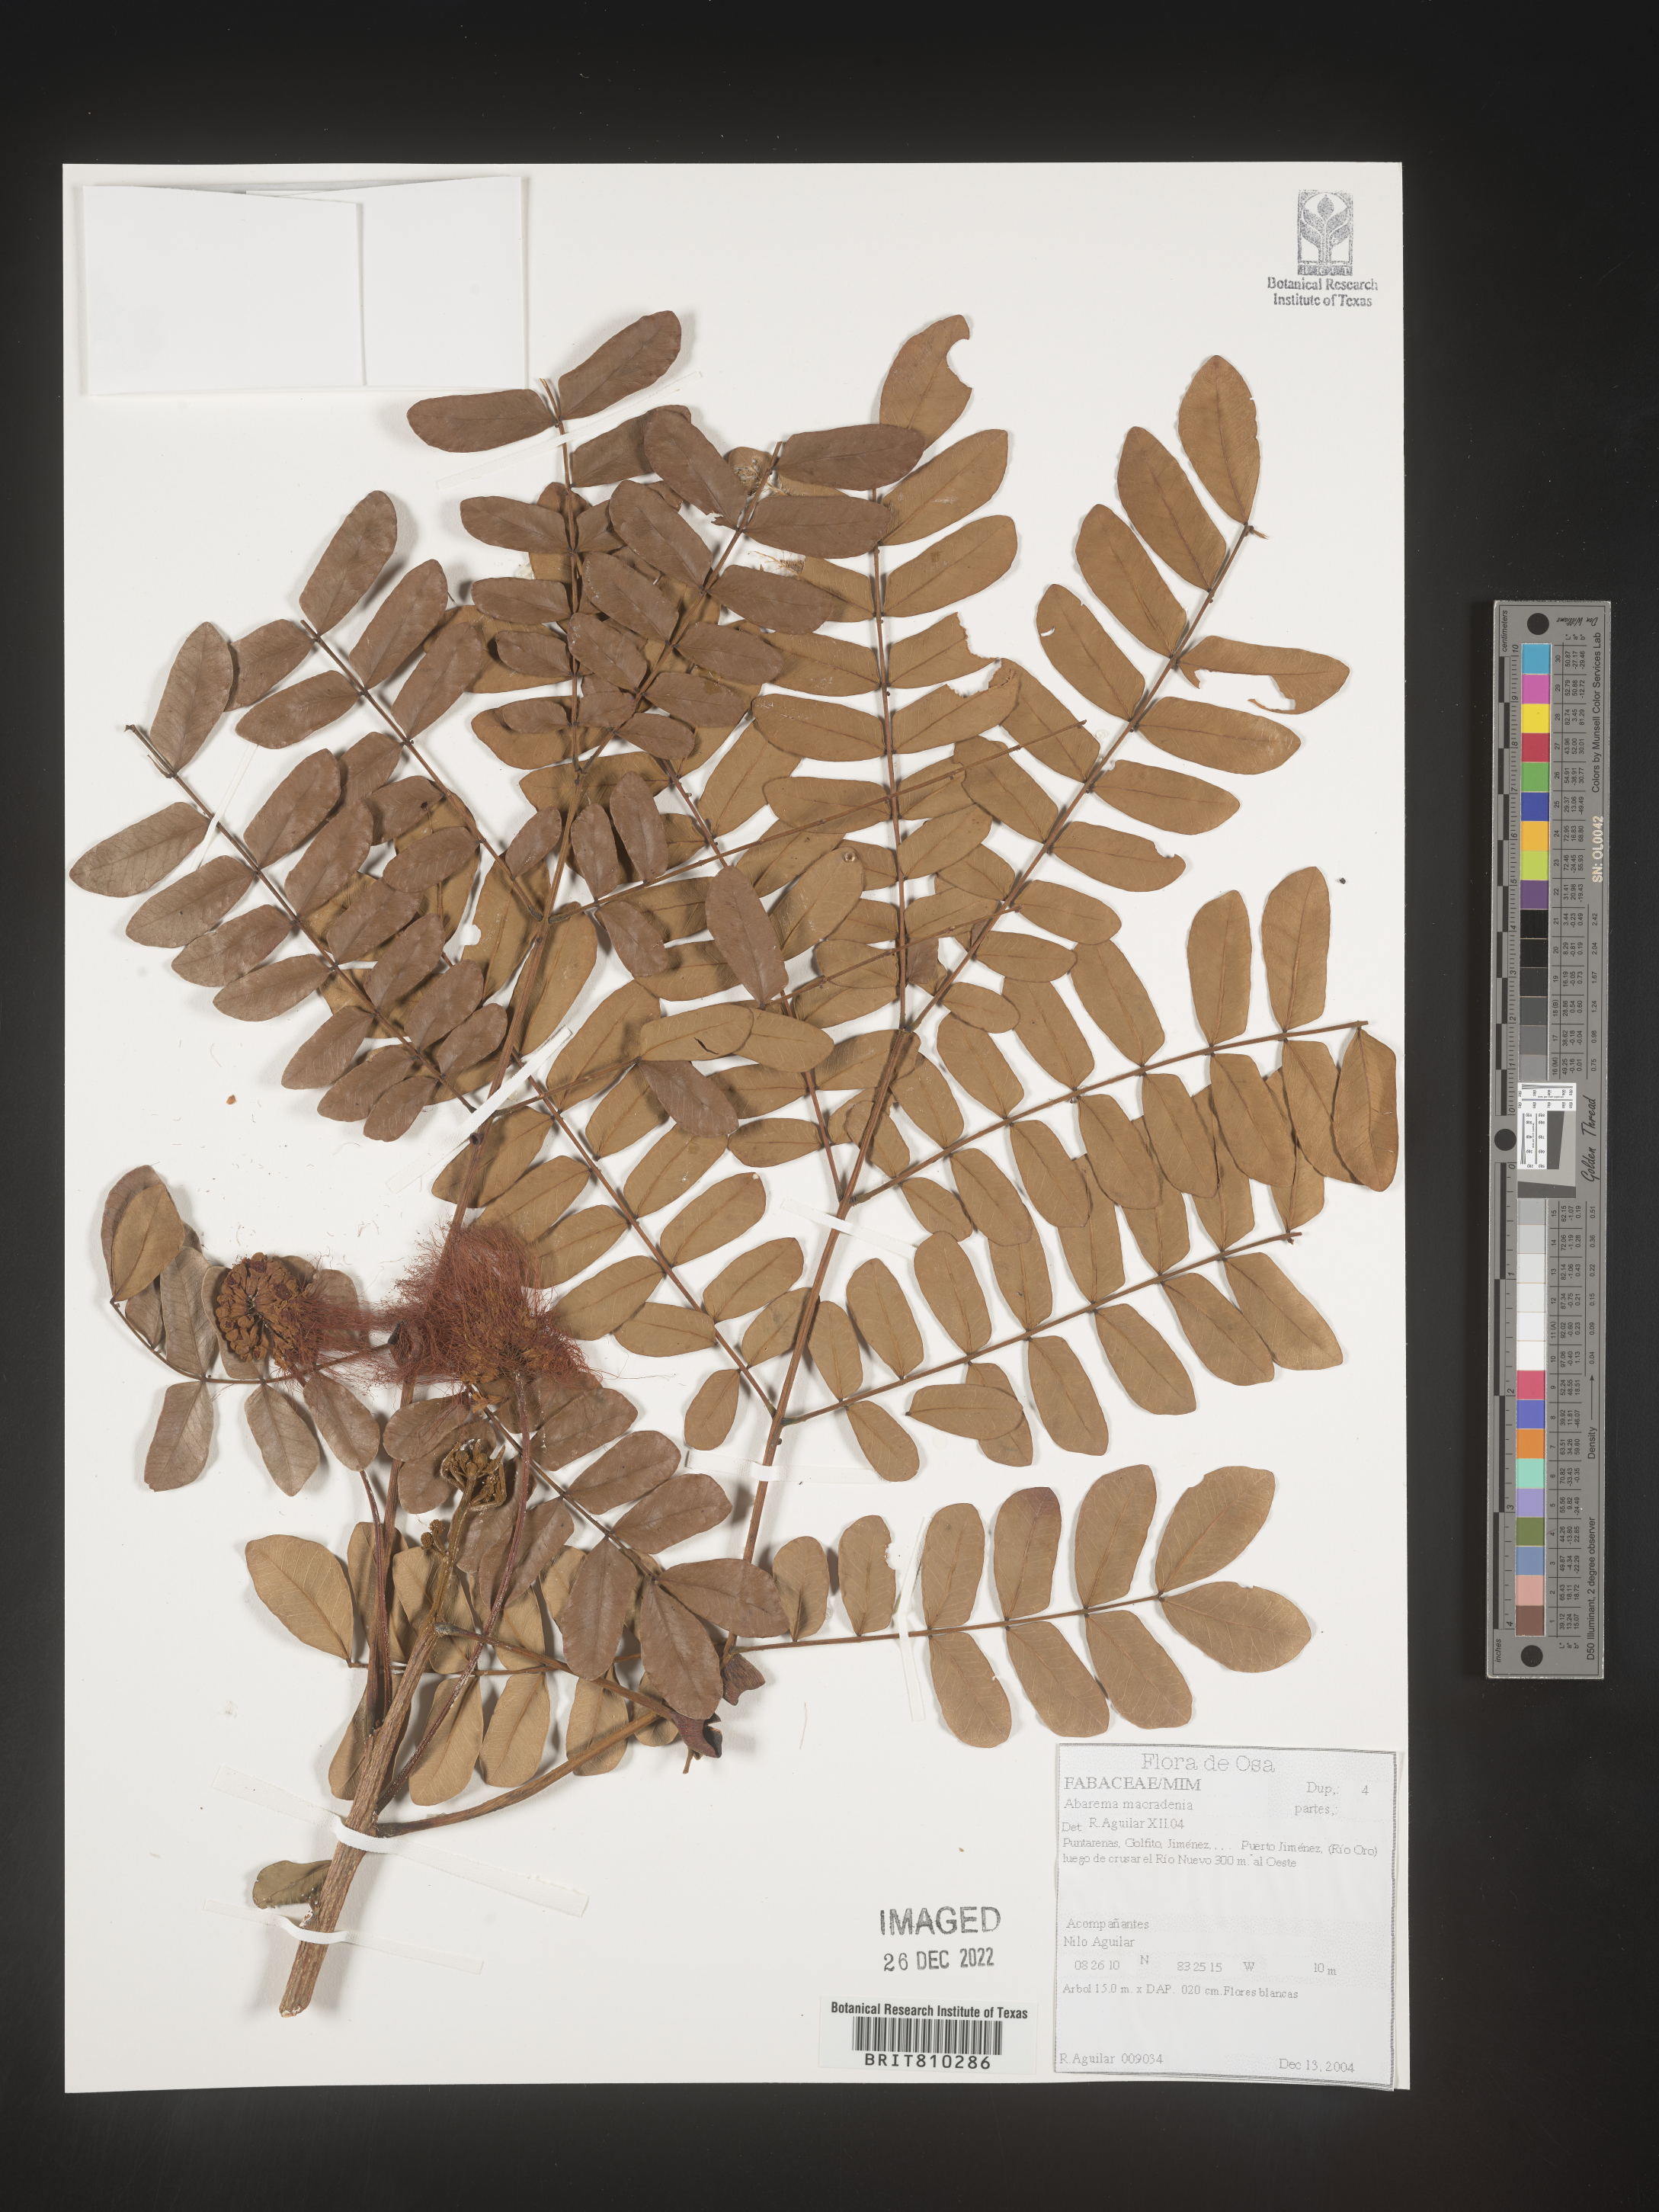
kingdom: Plantae
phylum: Tracheophyta
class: Magnoliopsida
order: Fabales
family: Fabaceae
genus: Abarema
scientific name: Abarema
